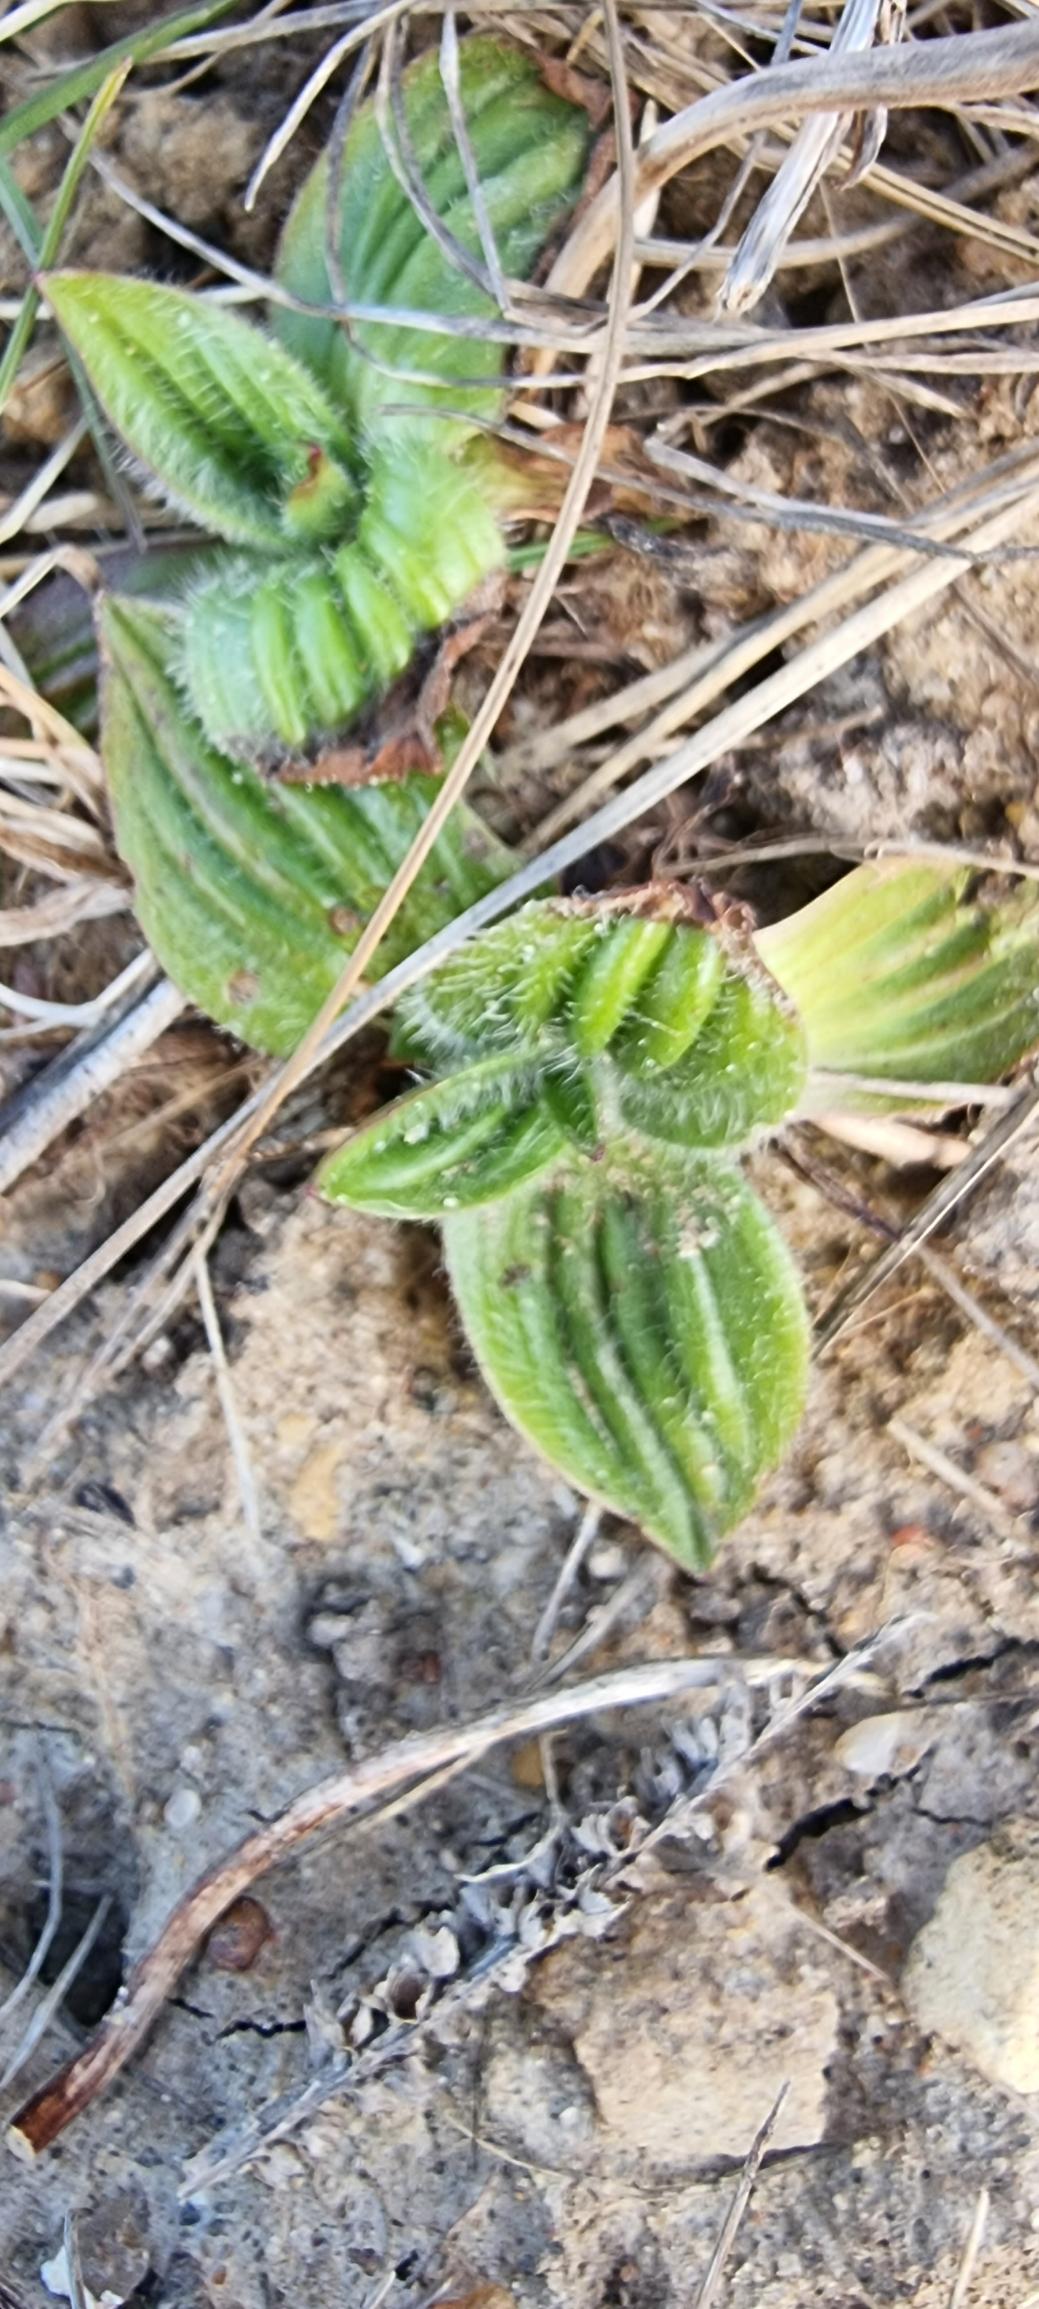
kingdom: Plantae
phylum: Tracheophyta
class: Magnoliopsida
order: Lamiales
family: Plantaginaceae
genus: Plantago
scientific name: Plantago media
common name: Dunet vejbred
